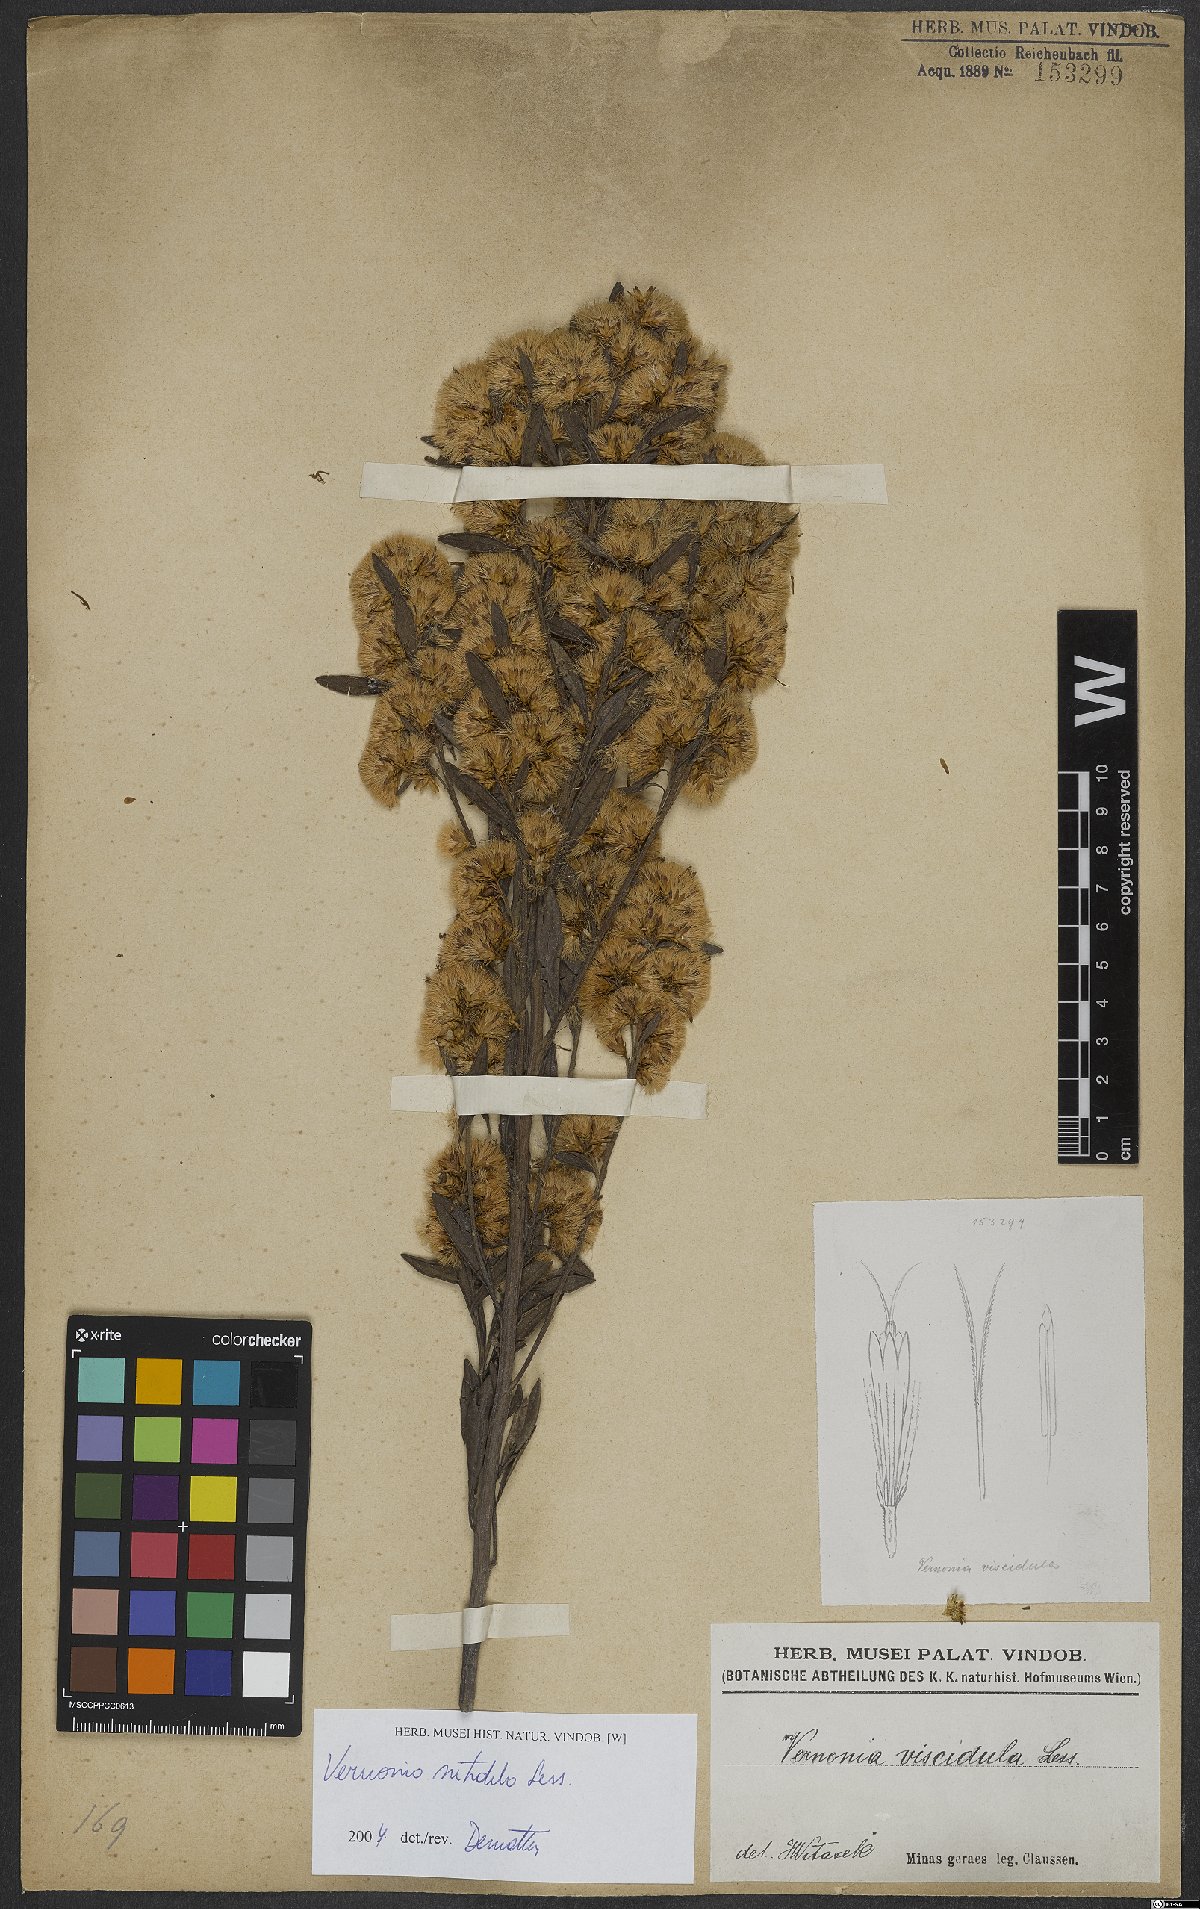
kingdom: Plantae
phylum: Tracheophyta
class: Magnoliopsida
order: Asterales
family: Asteraceae
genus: Vernonanthura
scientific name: Vernonanthura montevidensis
